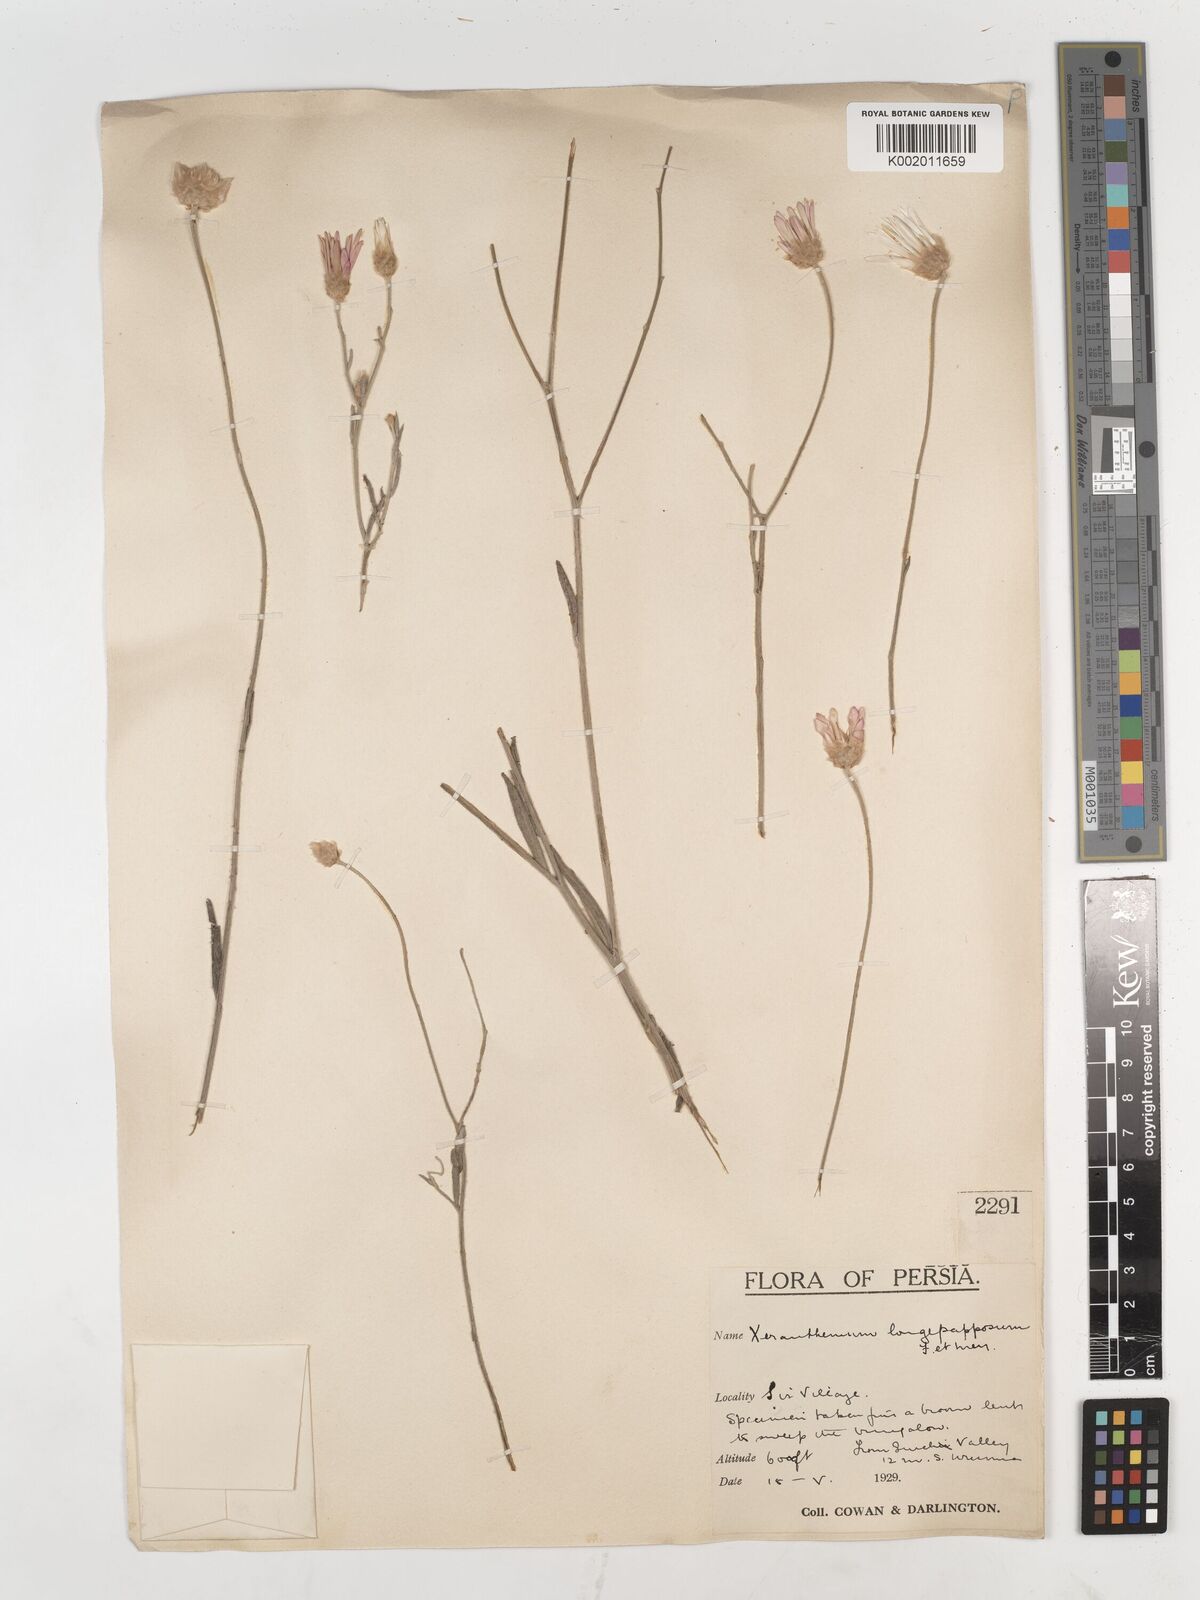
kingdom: Plantae
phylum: Tracheophyta
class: Magnoliopsida
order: Asterales
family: Asteraceae
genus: Xeranthemum
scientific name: Xeranthemum squarrosum
